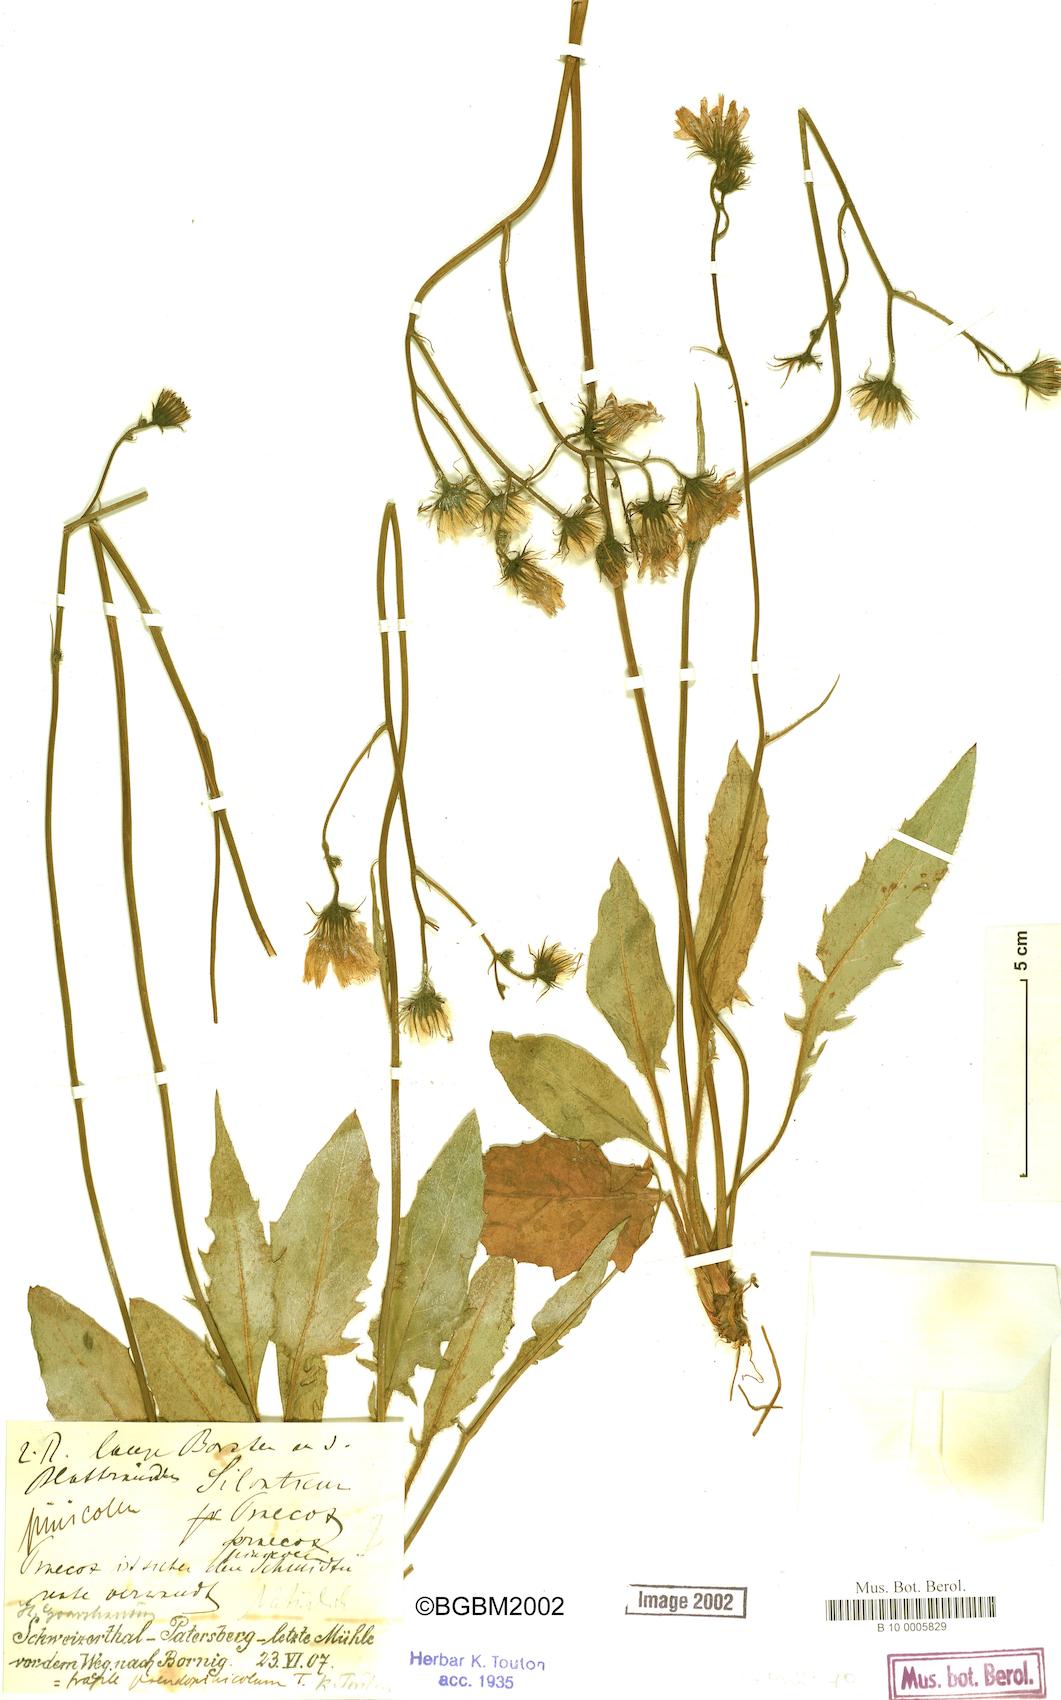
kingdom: Plantae
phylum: Tracheophyta
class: Magnoliopsida
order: Asterales
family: Asteraceae
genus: Hieracium
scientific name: Hieracium praecox
